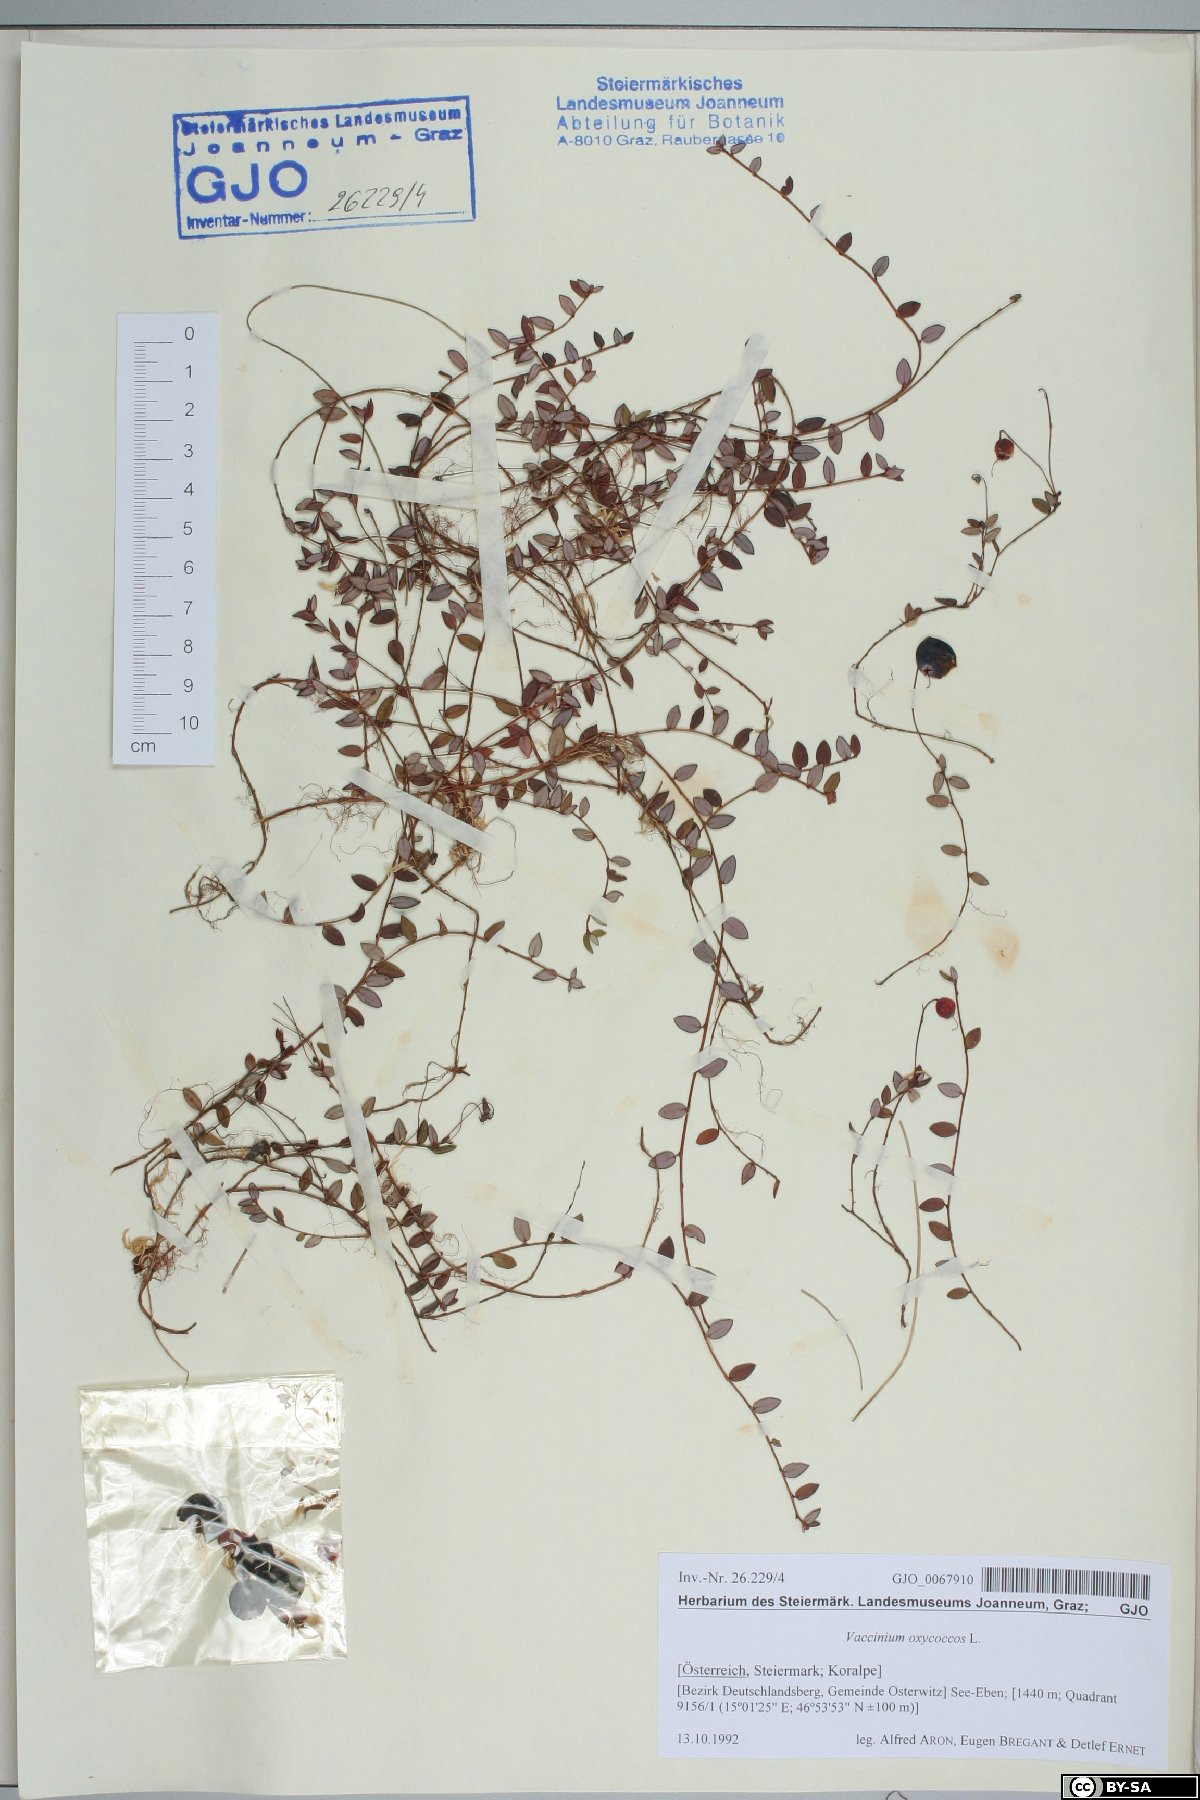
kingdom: Plantae
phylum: Tracheophyta
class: Magnoliopsida
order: Ericales
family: Ericaceae
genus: Vaccinium
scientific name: Vaccinium oxycoccos
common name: Cranberry
